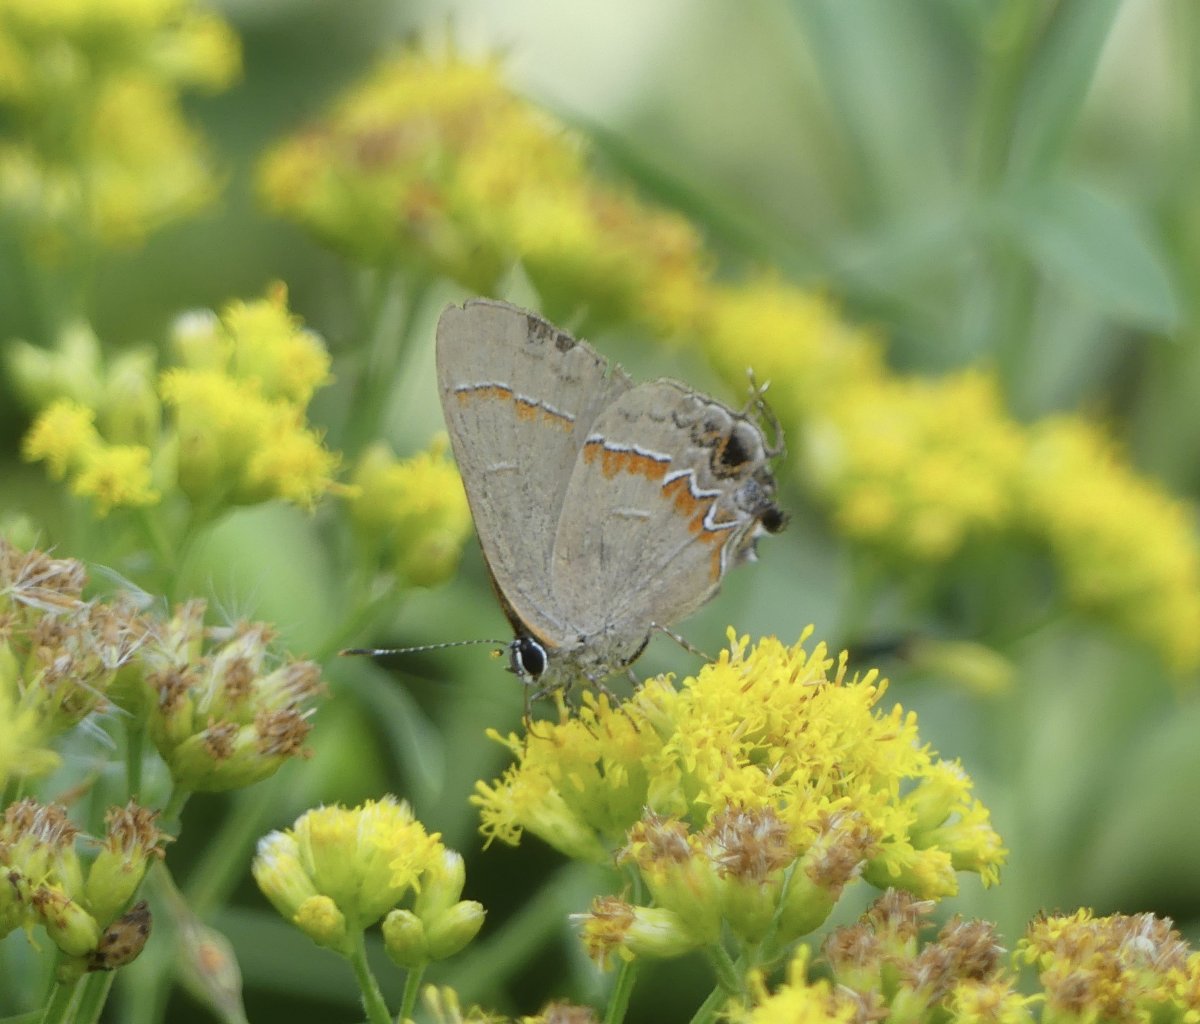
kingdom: Animalia
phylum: Arthropoda
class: Insecta
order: Lepidoptera
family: Lycaenidae
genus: Calycopis
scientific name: Calycopis cecrops
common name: Red-banded Hairstreak
